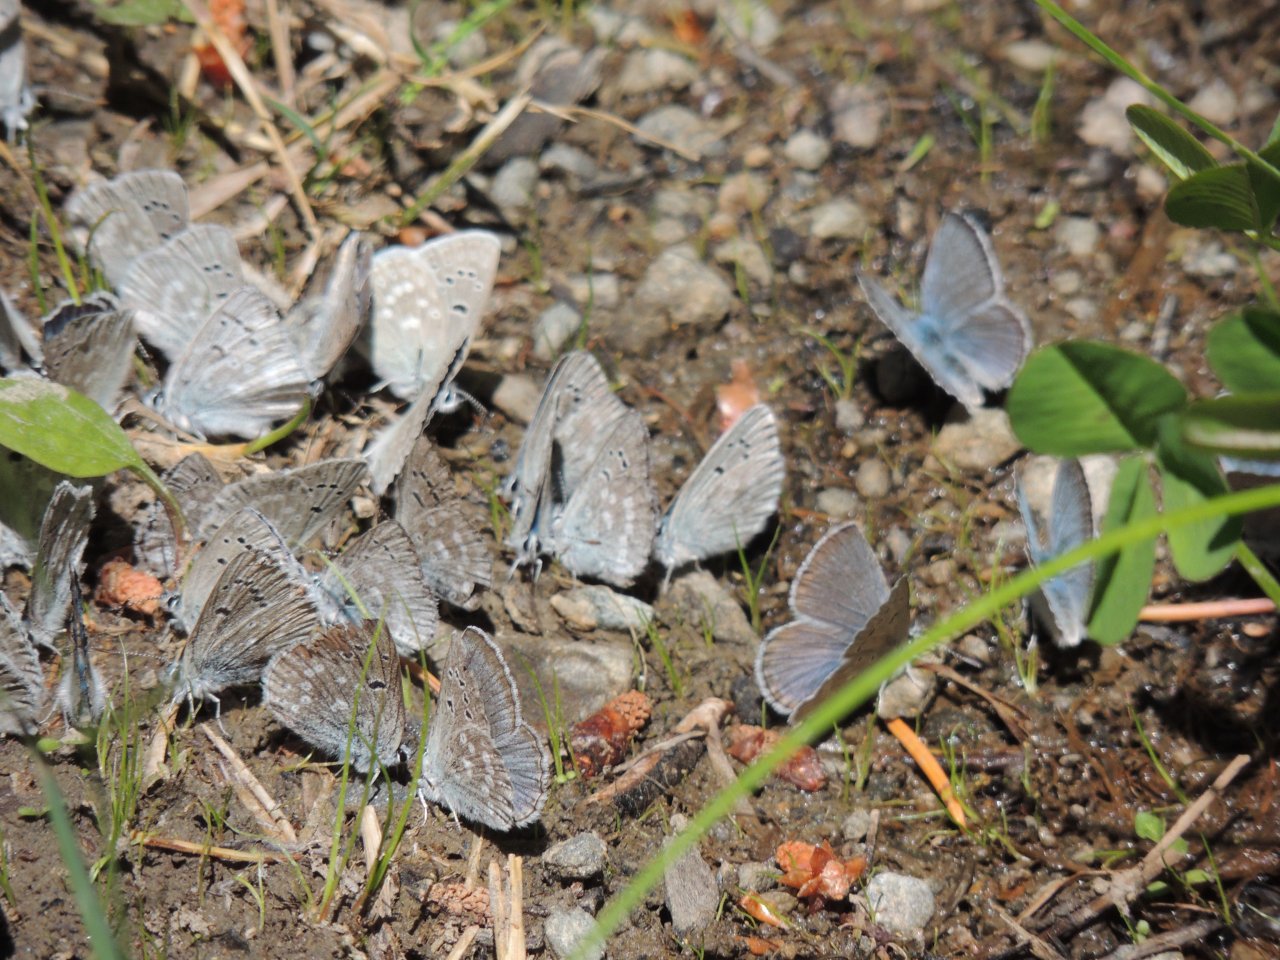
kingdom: Animalia
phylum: Arthropoda
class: Insecta
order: Lepidoptera
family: Lycaenidae
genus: Icaricia
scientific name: Icaricia icarioides
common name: Boisduval's Blue
